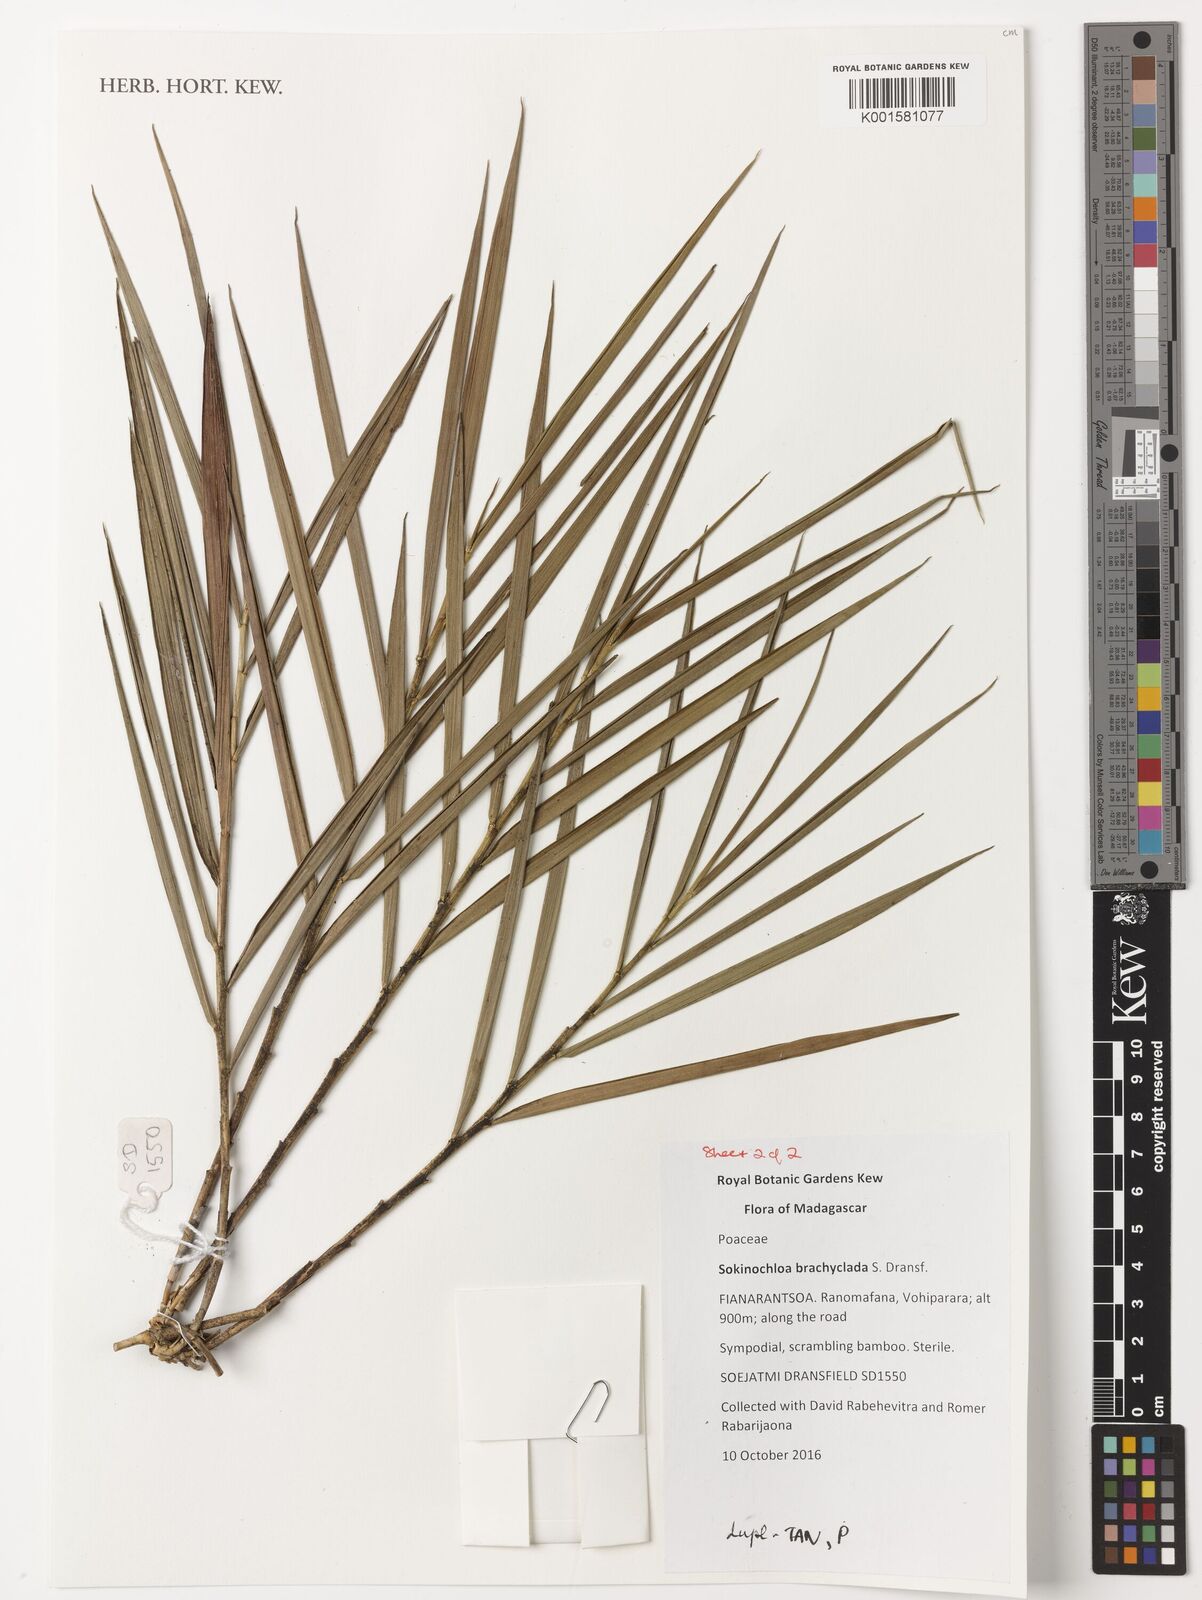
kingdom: Plantae
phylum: Tracheophyta
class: Liliopsida
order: Poales
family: Poaceae
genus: Sokinochloa
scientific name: Sokinochloa brachyclada
